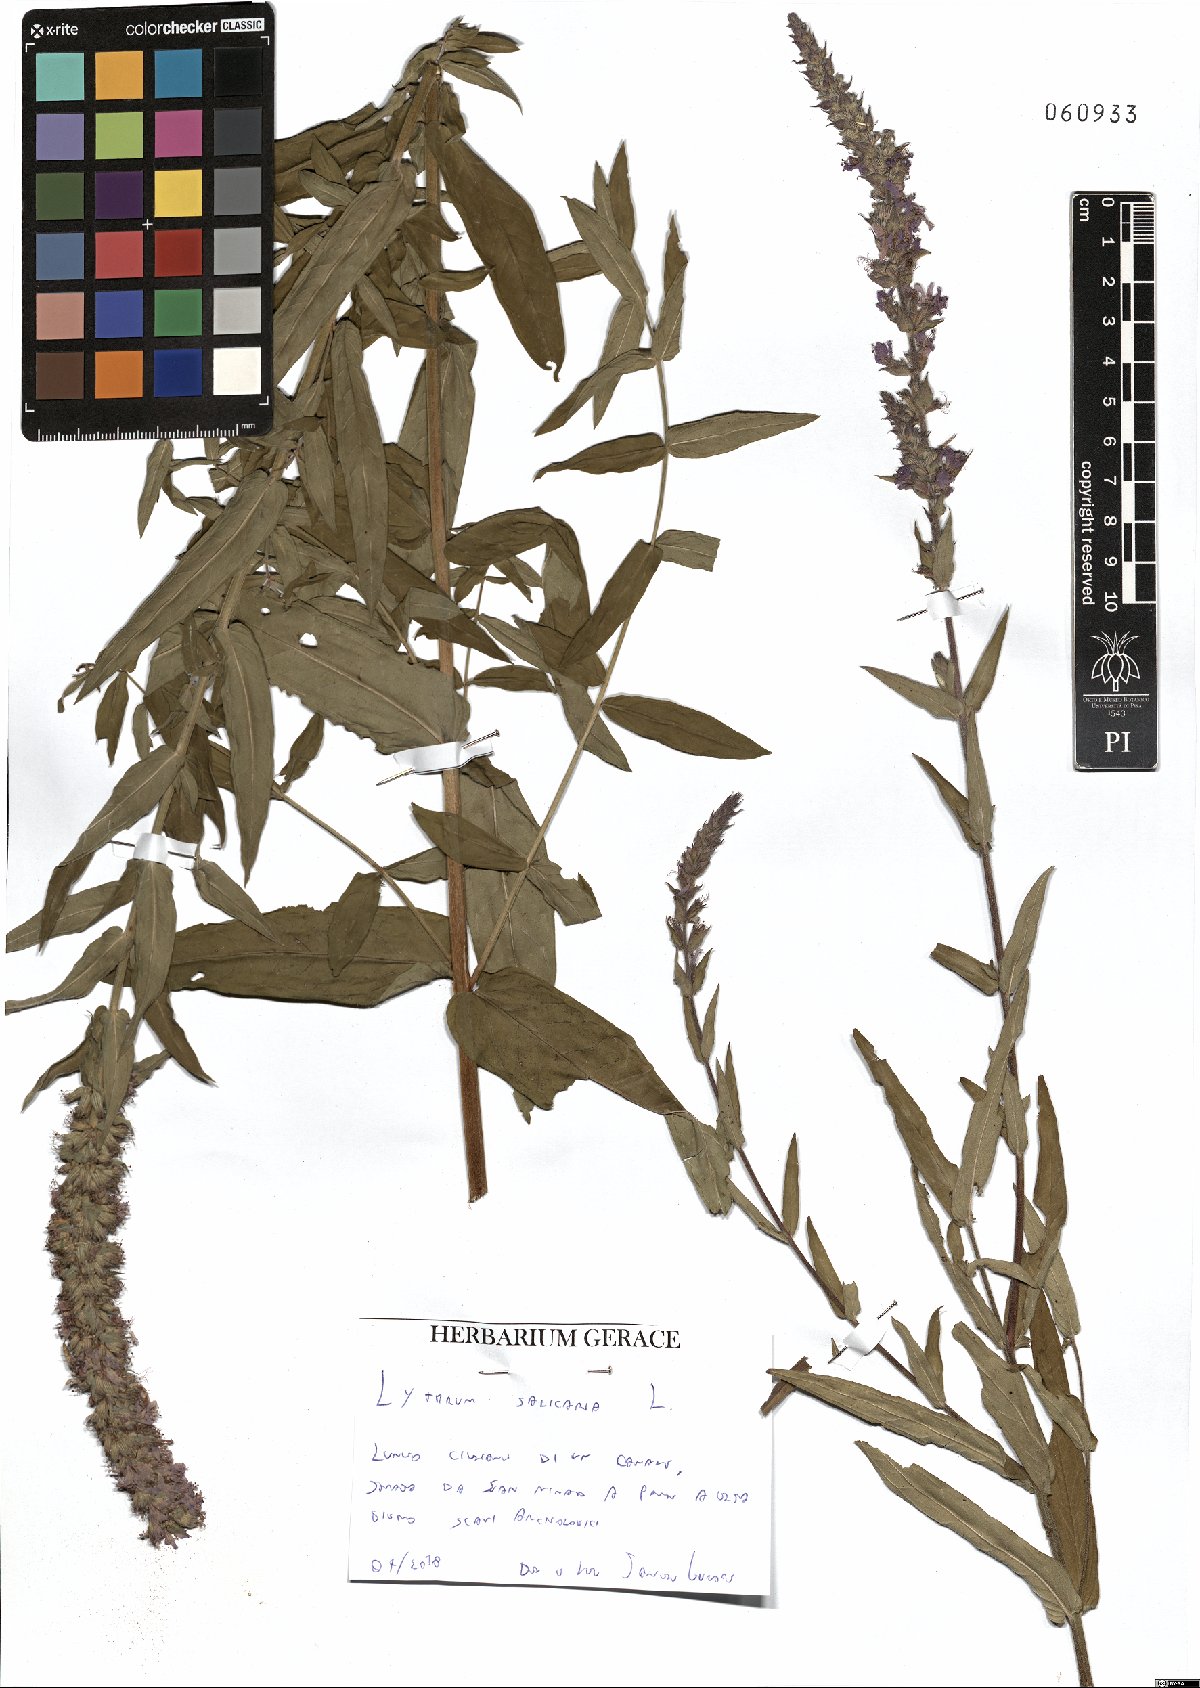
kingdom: Plantae
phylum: Tracheophyta
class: Magnoliopsida
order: Myrtales
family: Lythraceae
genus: Lythrum
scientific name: Lythrum salicaria
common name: Purple loosestrife
